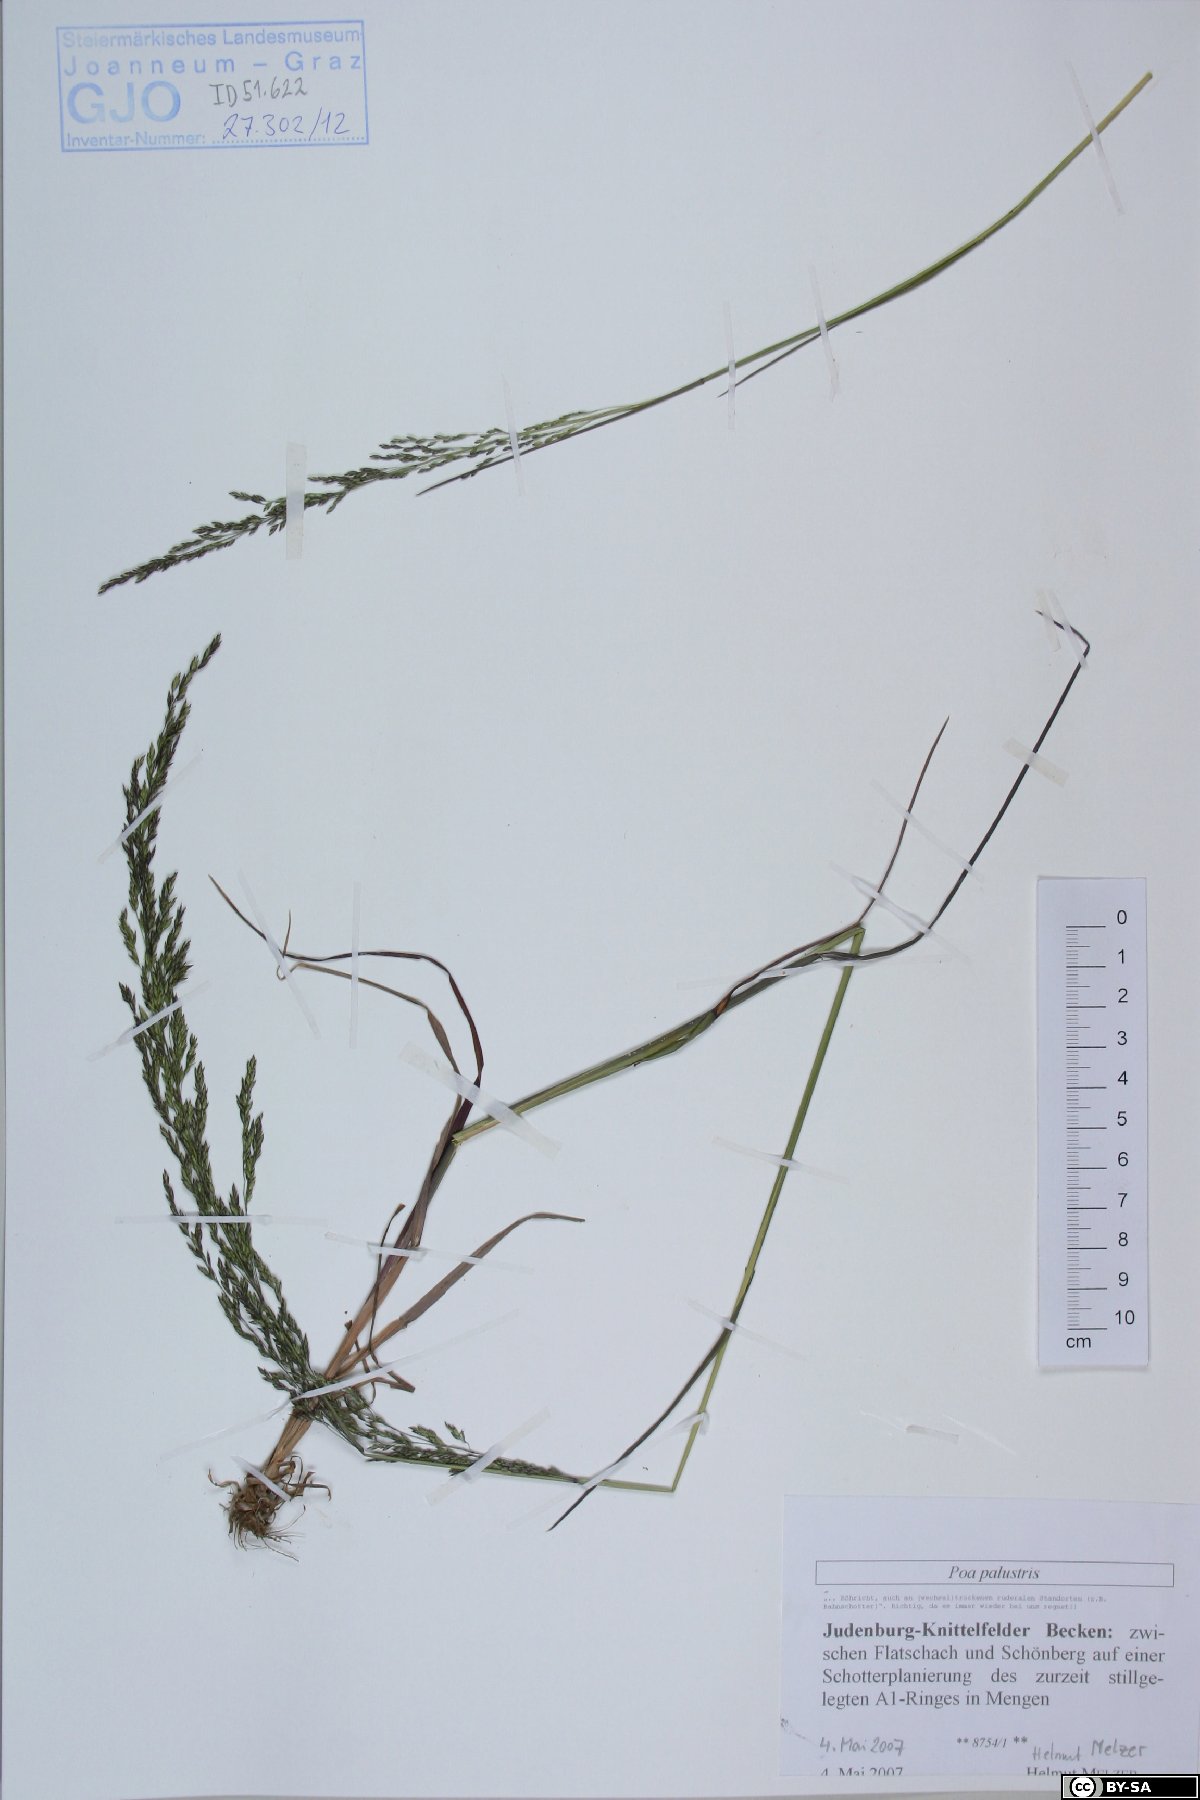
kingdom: Plantae
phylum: Tracheophyta
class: Liliopsida
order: Poales
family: Poaceae
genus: Poa
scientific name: Poa palustris
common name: Swamp meadow-grass
